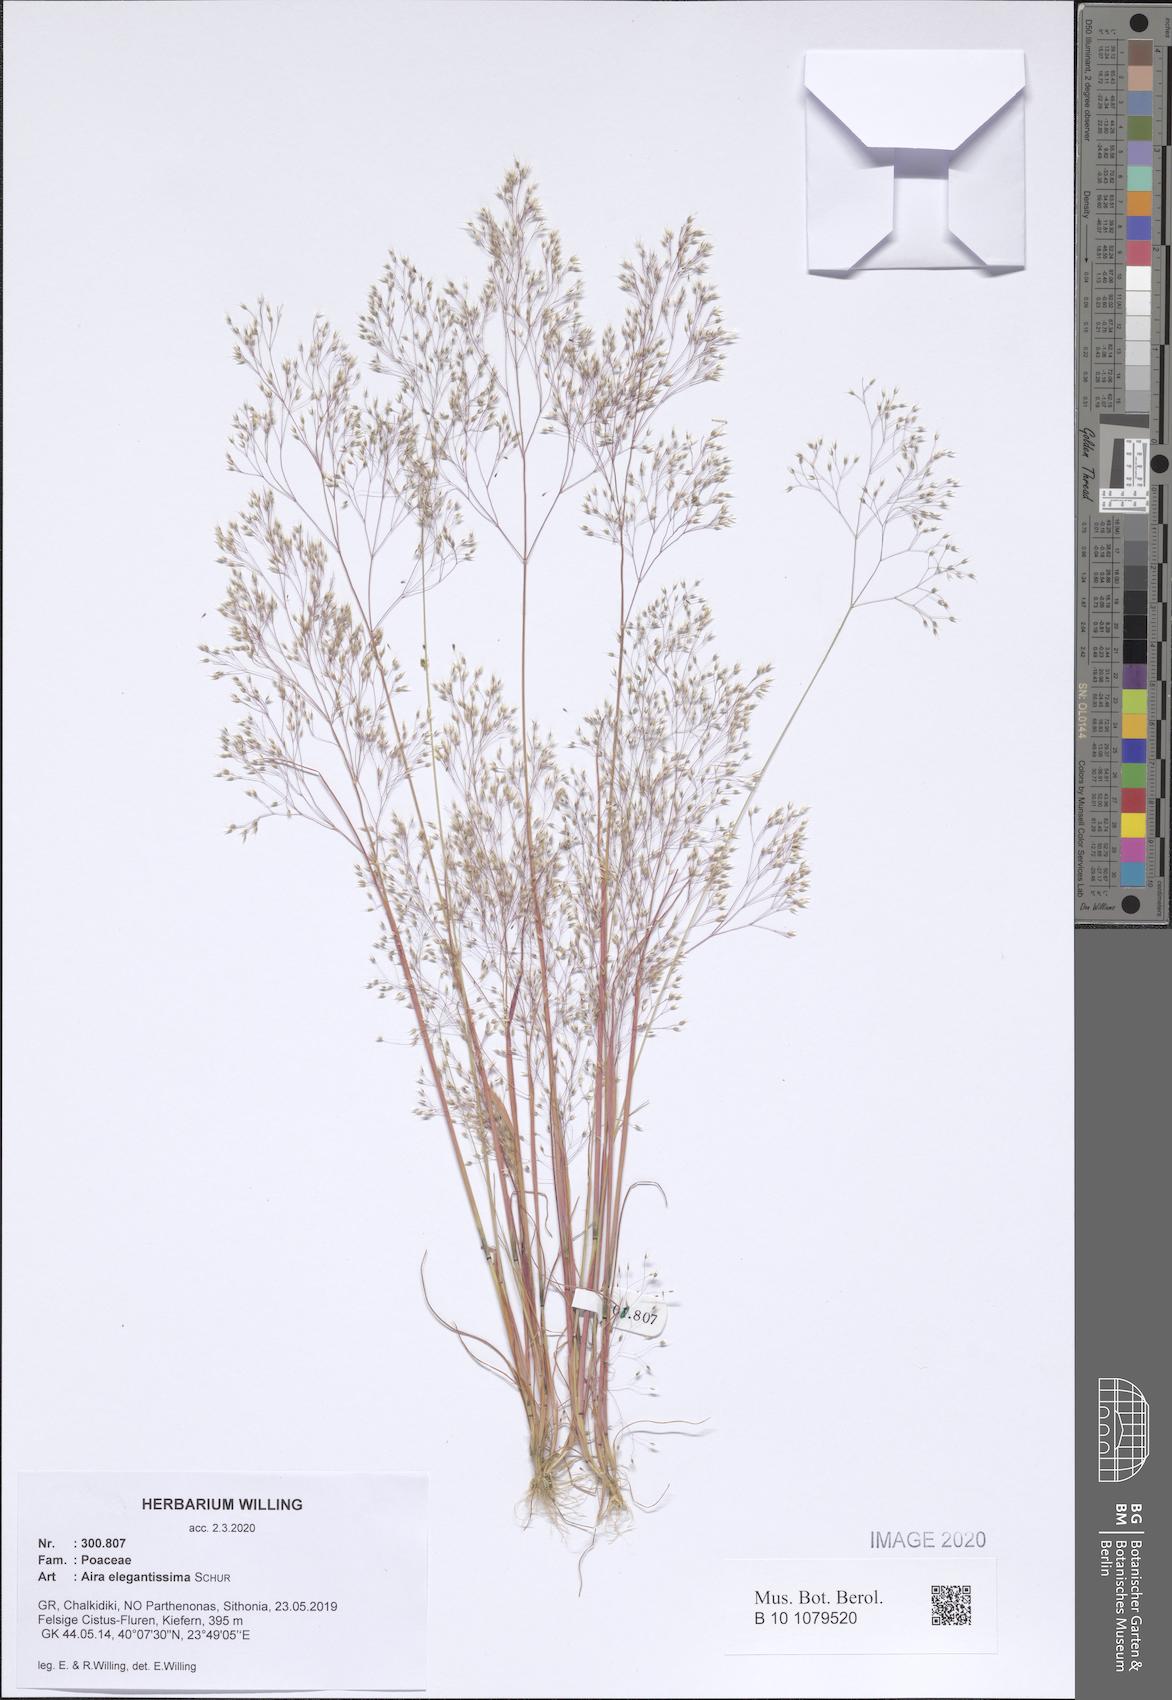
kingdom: Plantae
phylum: Tracheophyta
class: Liliopsida
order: Poales
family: Poaceae
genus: Aira
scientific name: Aira elegans
